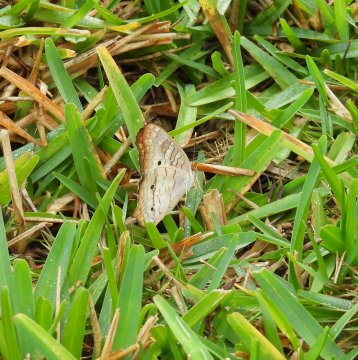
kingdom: Animalia
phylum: Arthropoda
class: Insecta
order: Lepidoptera
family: Nymphalidae
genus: Anartia
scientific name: Anartia jatrophae
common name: White Peacock
